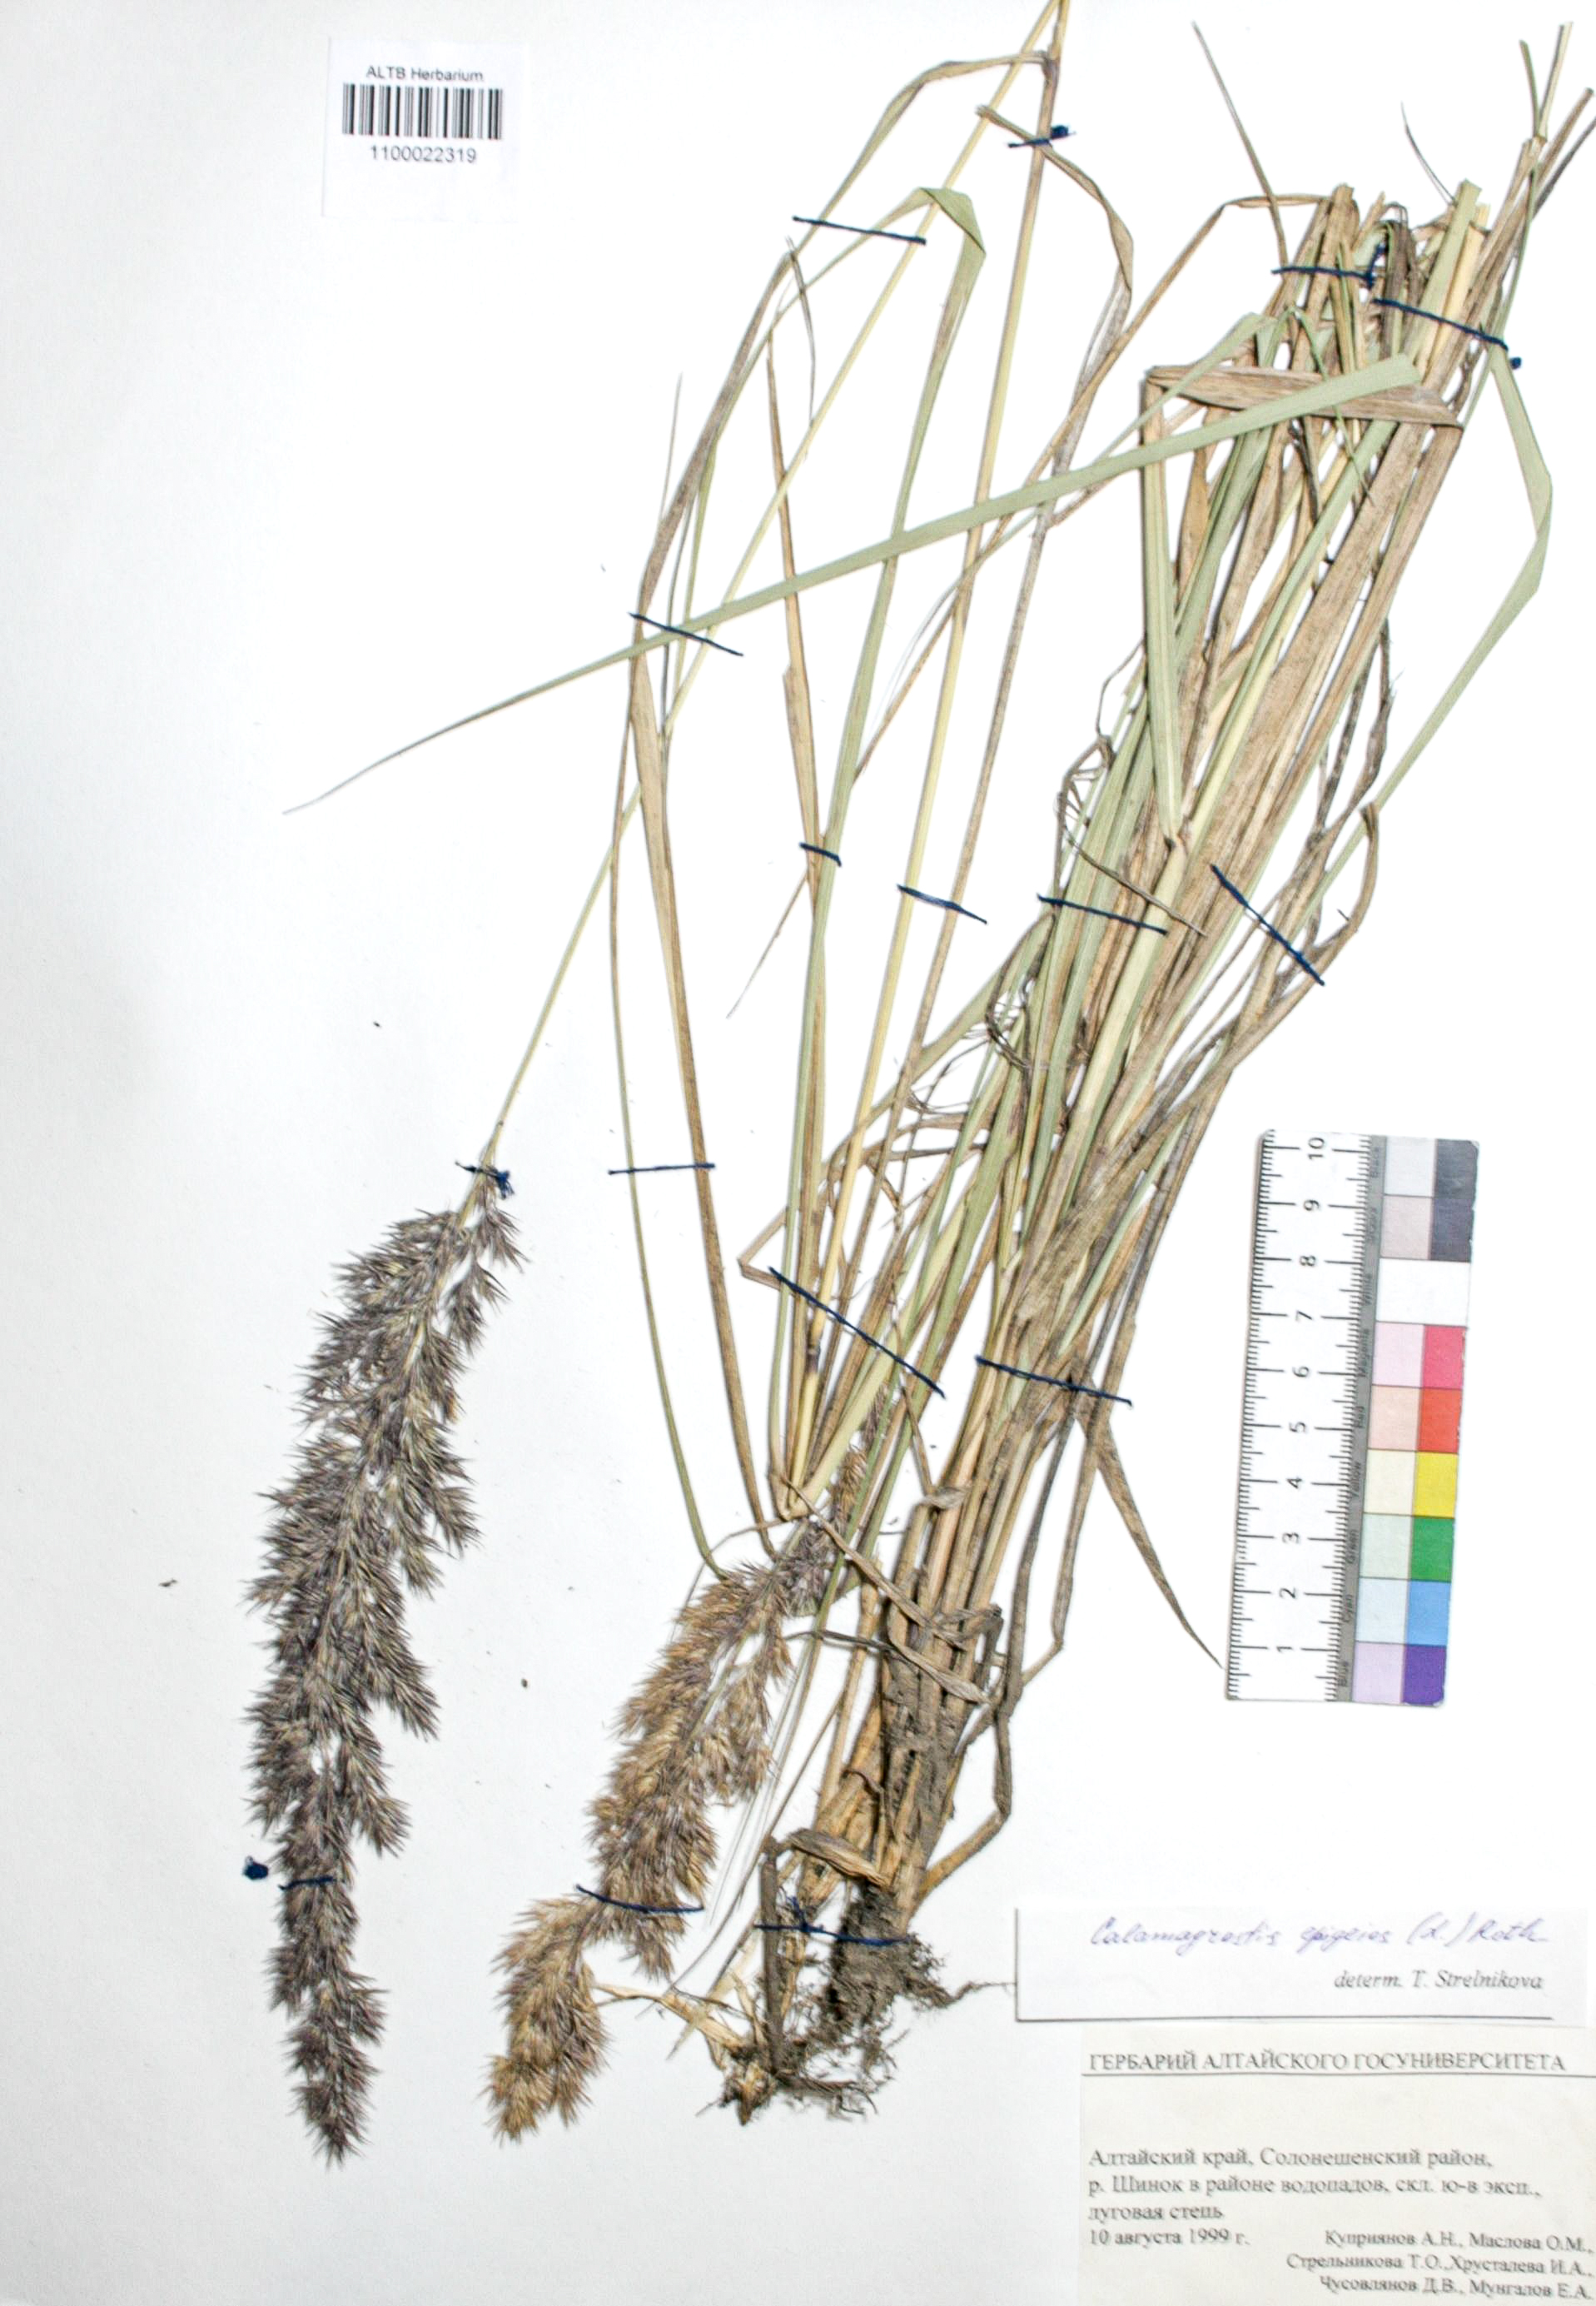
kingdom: Plantae
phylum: Tracheophyta
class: Liliopsida
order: Poales
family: Poaceae
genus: Calamagrostis
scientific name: Calamagrostis epigejos
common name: Wood small-reed
